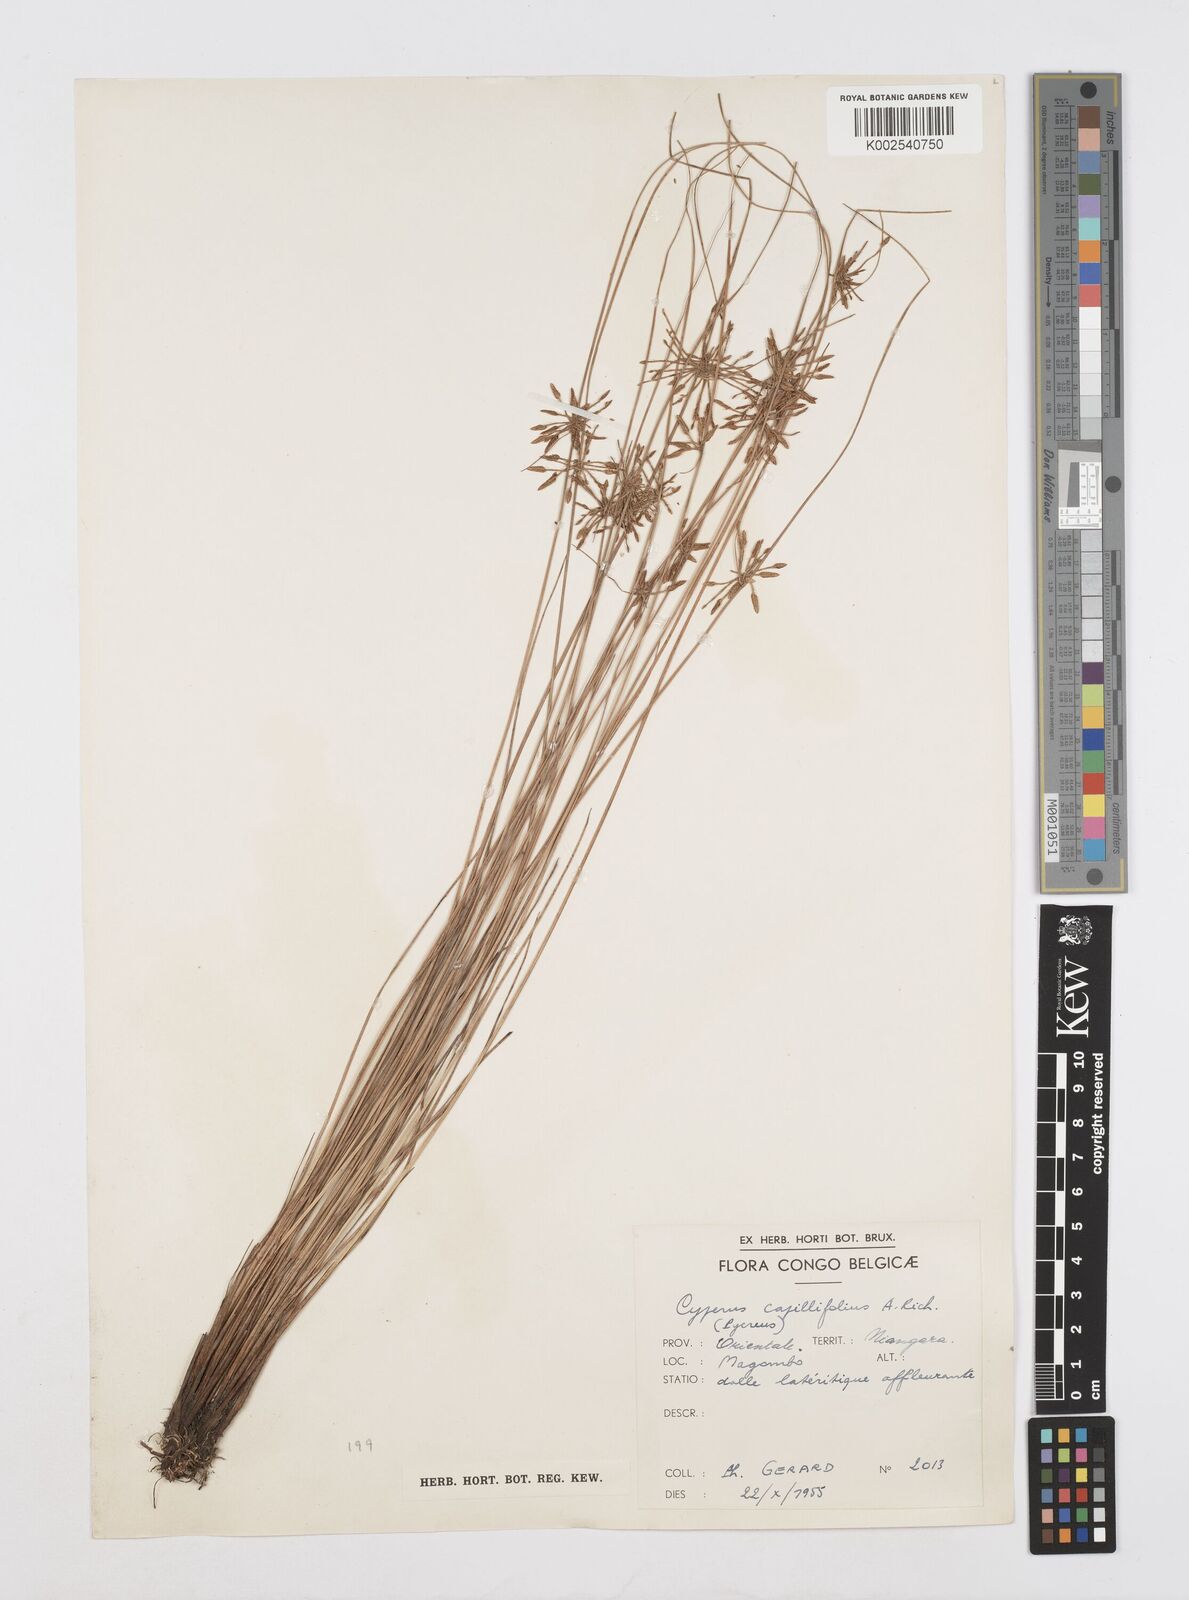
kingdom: Plantae
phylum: Tracheophyta
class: Liliopsida
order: Poales
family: Cyperaceae
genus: Cyperus
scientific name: Cyperus capillifolius
